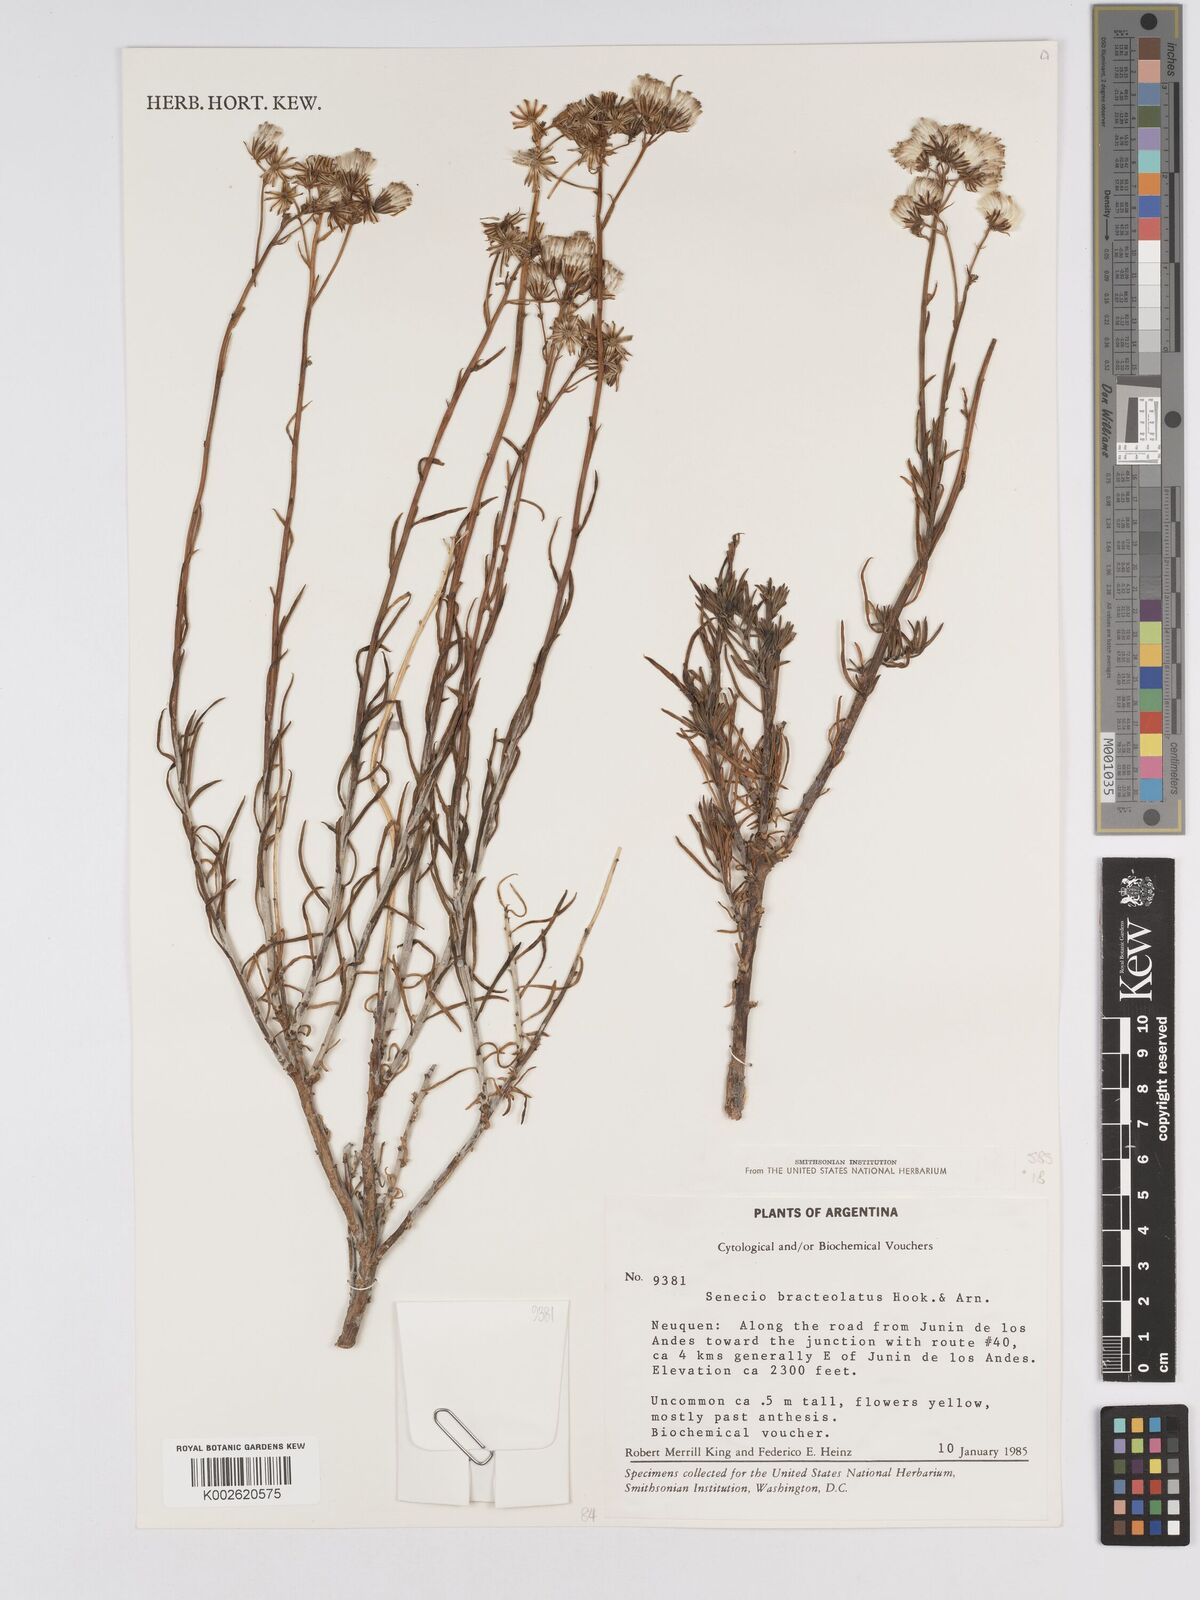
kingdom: Plantae
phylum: Tracheophyta
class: Magnoliopsida
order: Asterales
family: Asteraceae
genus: Senecio
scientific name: Senecio bracteolatus
